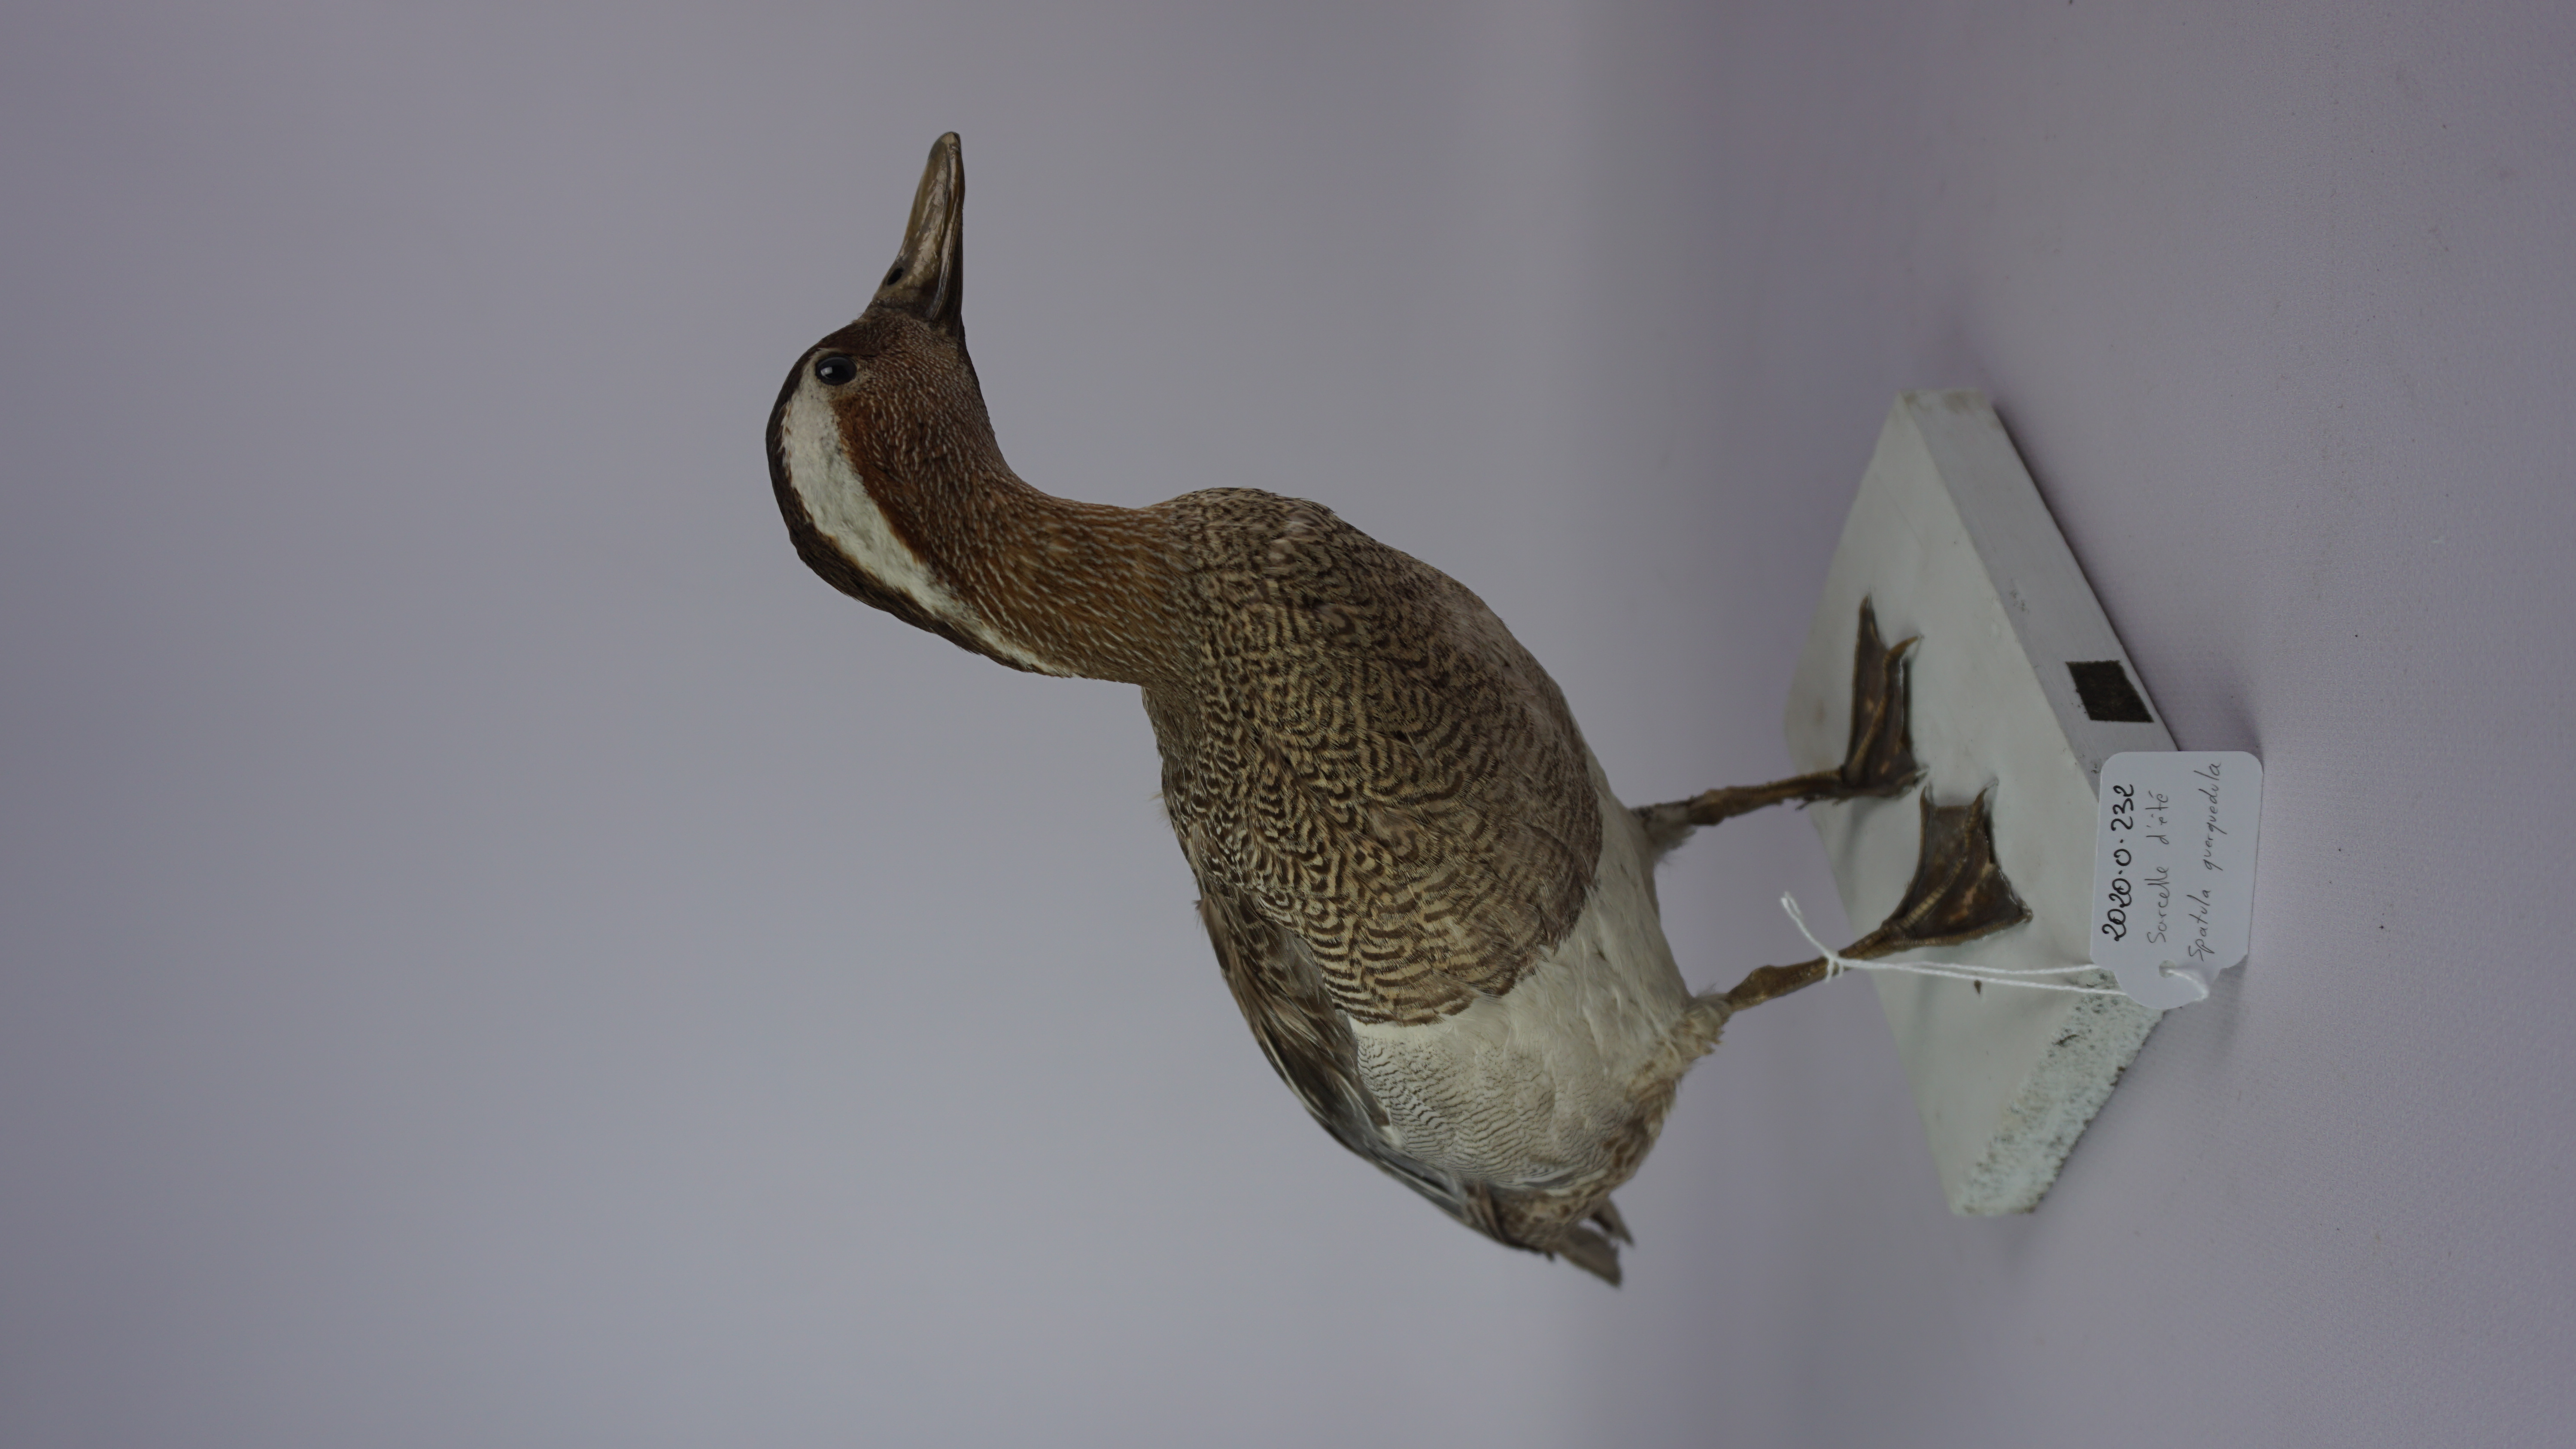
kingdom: Animalia
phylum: Chordata
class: Aves
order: Anseriformes
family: Anatidae
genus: Spatula
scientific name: Spatula querquedula
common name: Garganey
